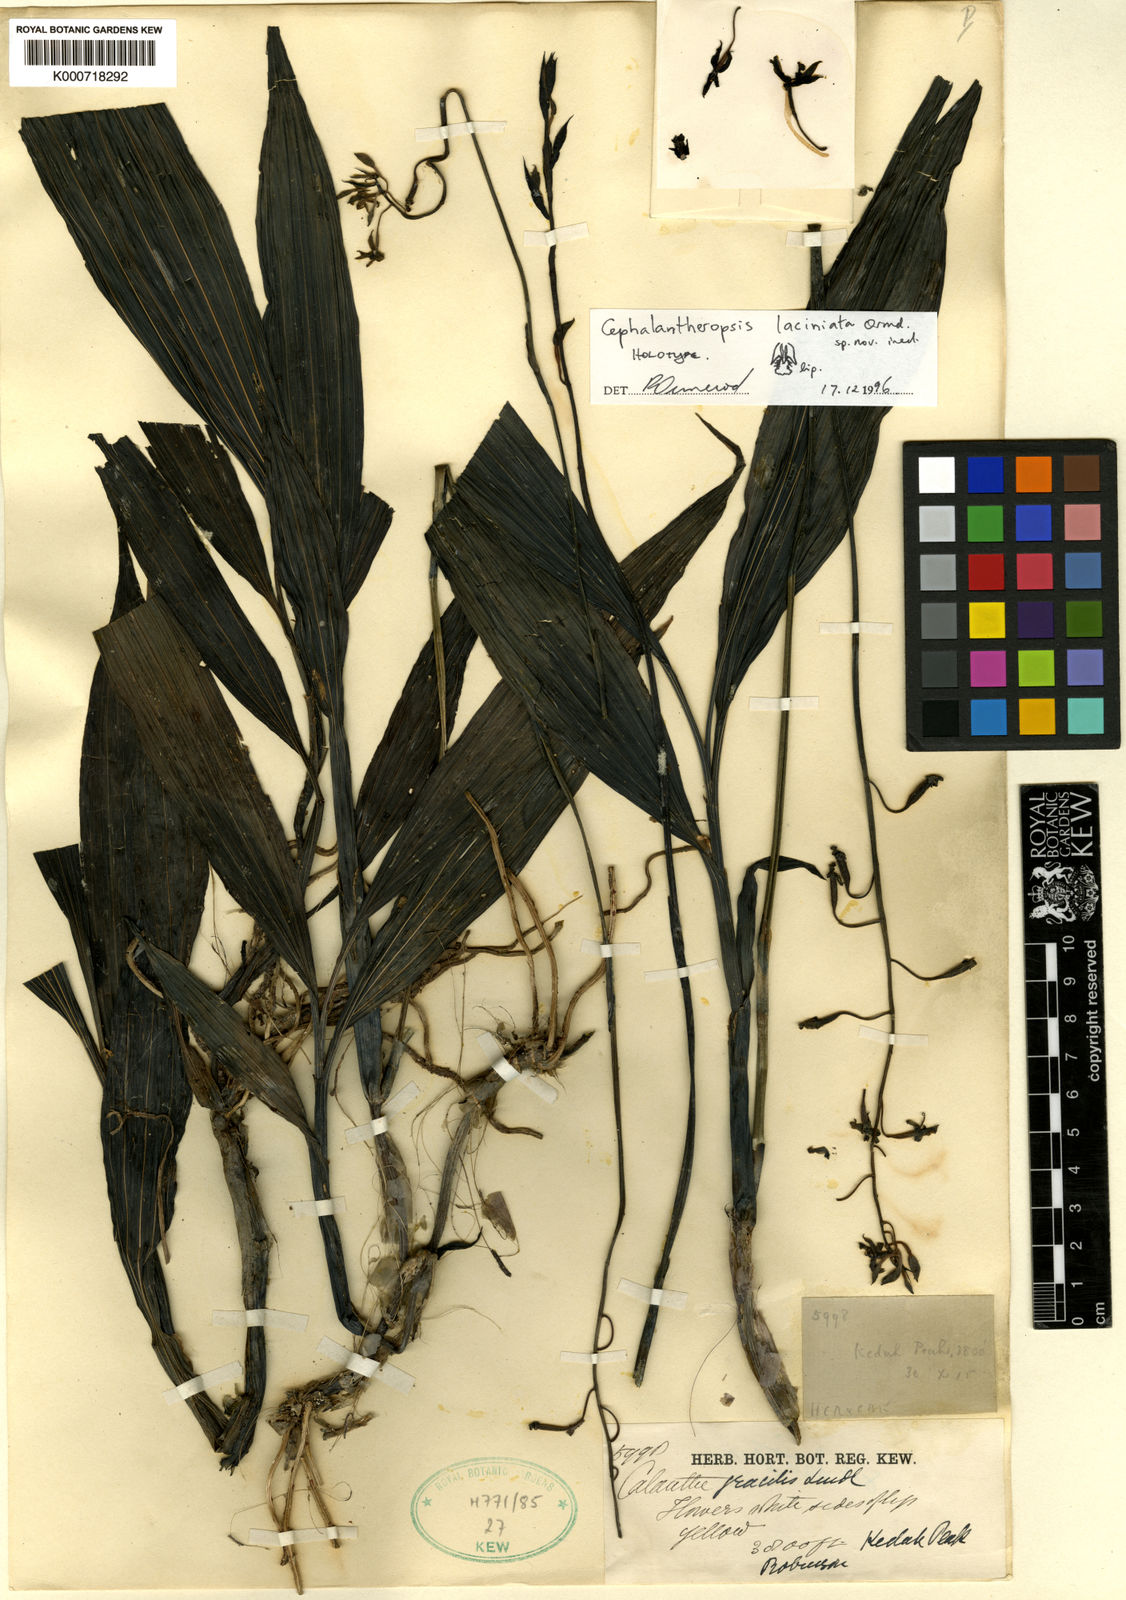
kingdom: Plantae
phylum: Tracheophyta
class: Liliopsida
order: Asparagales
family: Orchidaceae
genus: Calanthe
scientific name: Calanthe laciniata
